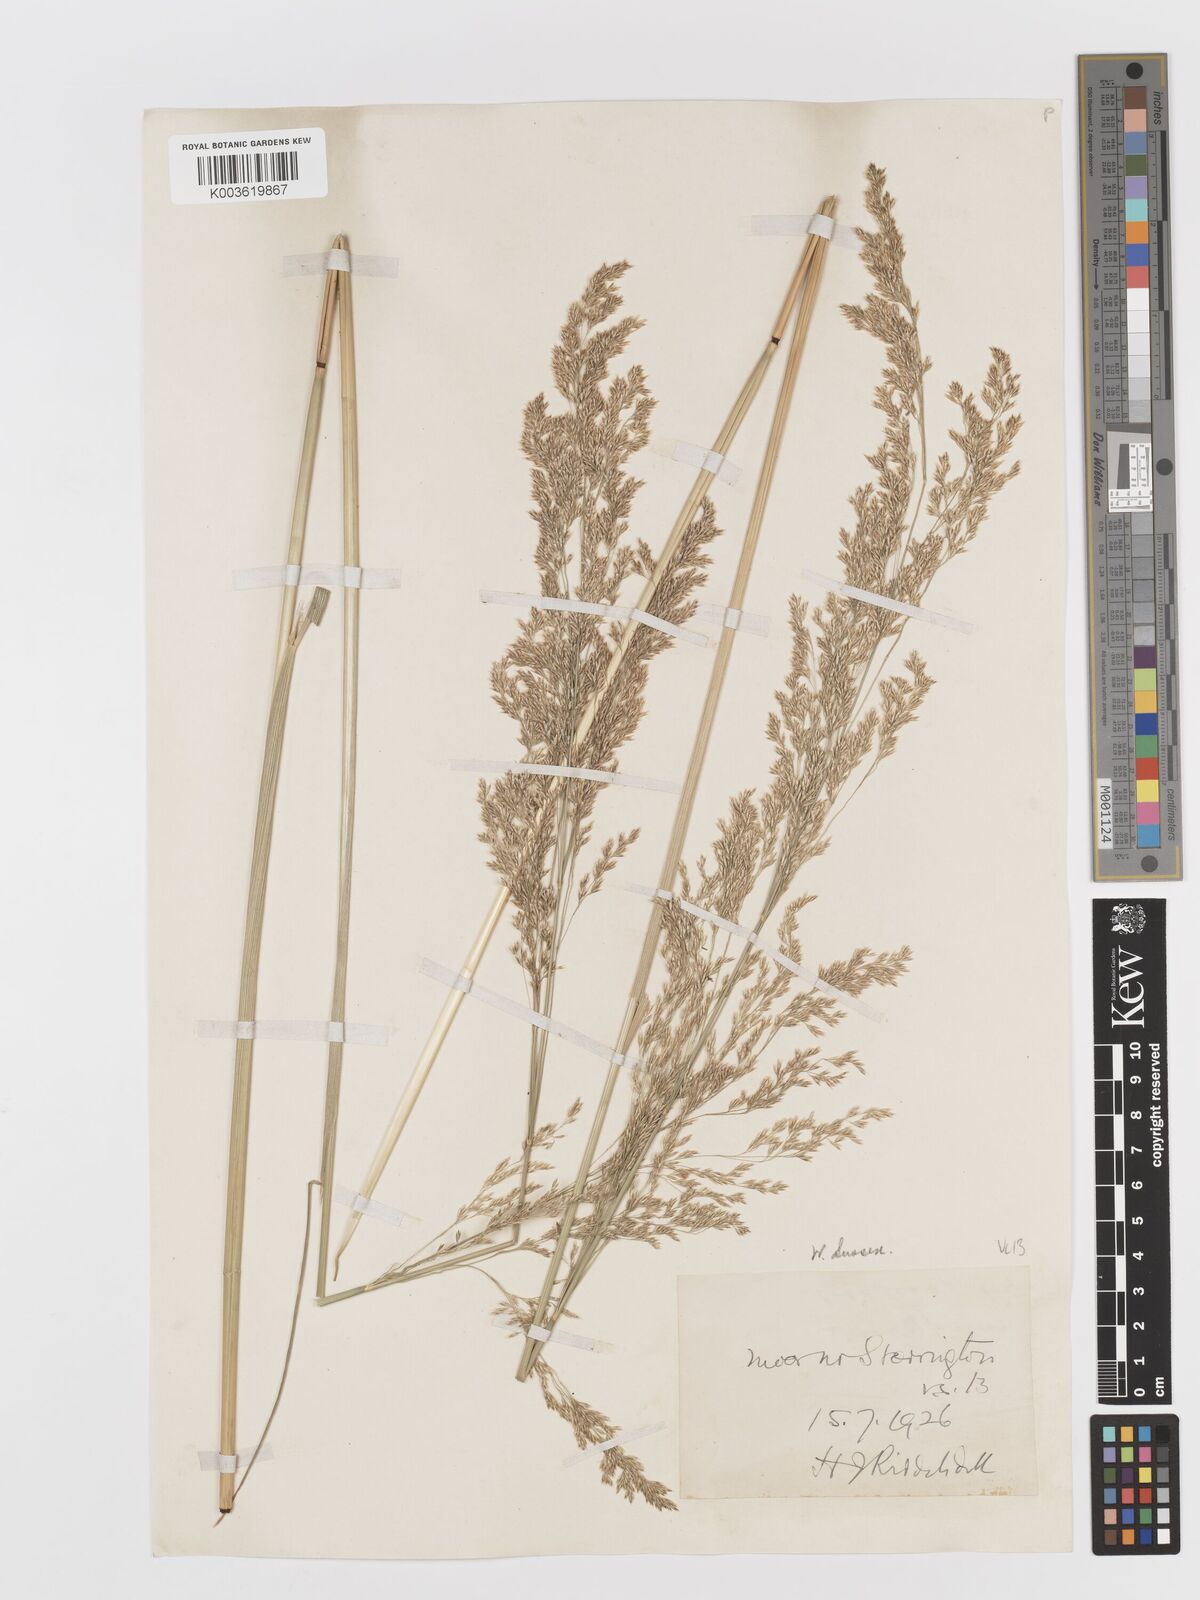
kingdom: Plantae
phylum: Tracheophyta
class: Liliopsida
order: Poales
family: Poaceae
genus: Deschampsia
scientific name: Deschampsia cespitosa
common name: Tufted hair-grass
